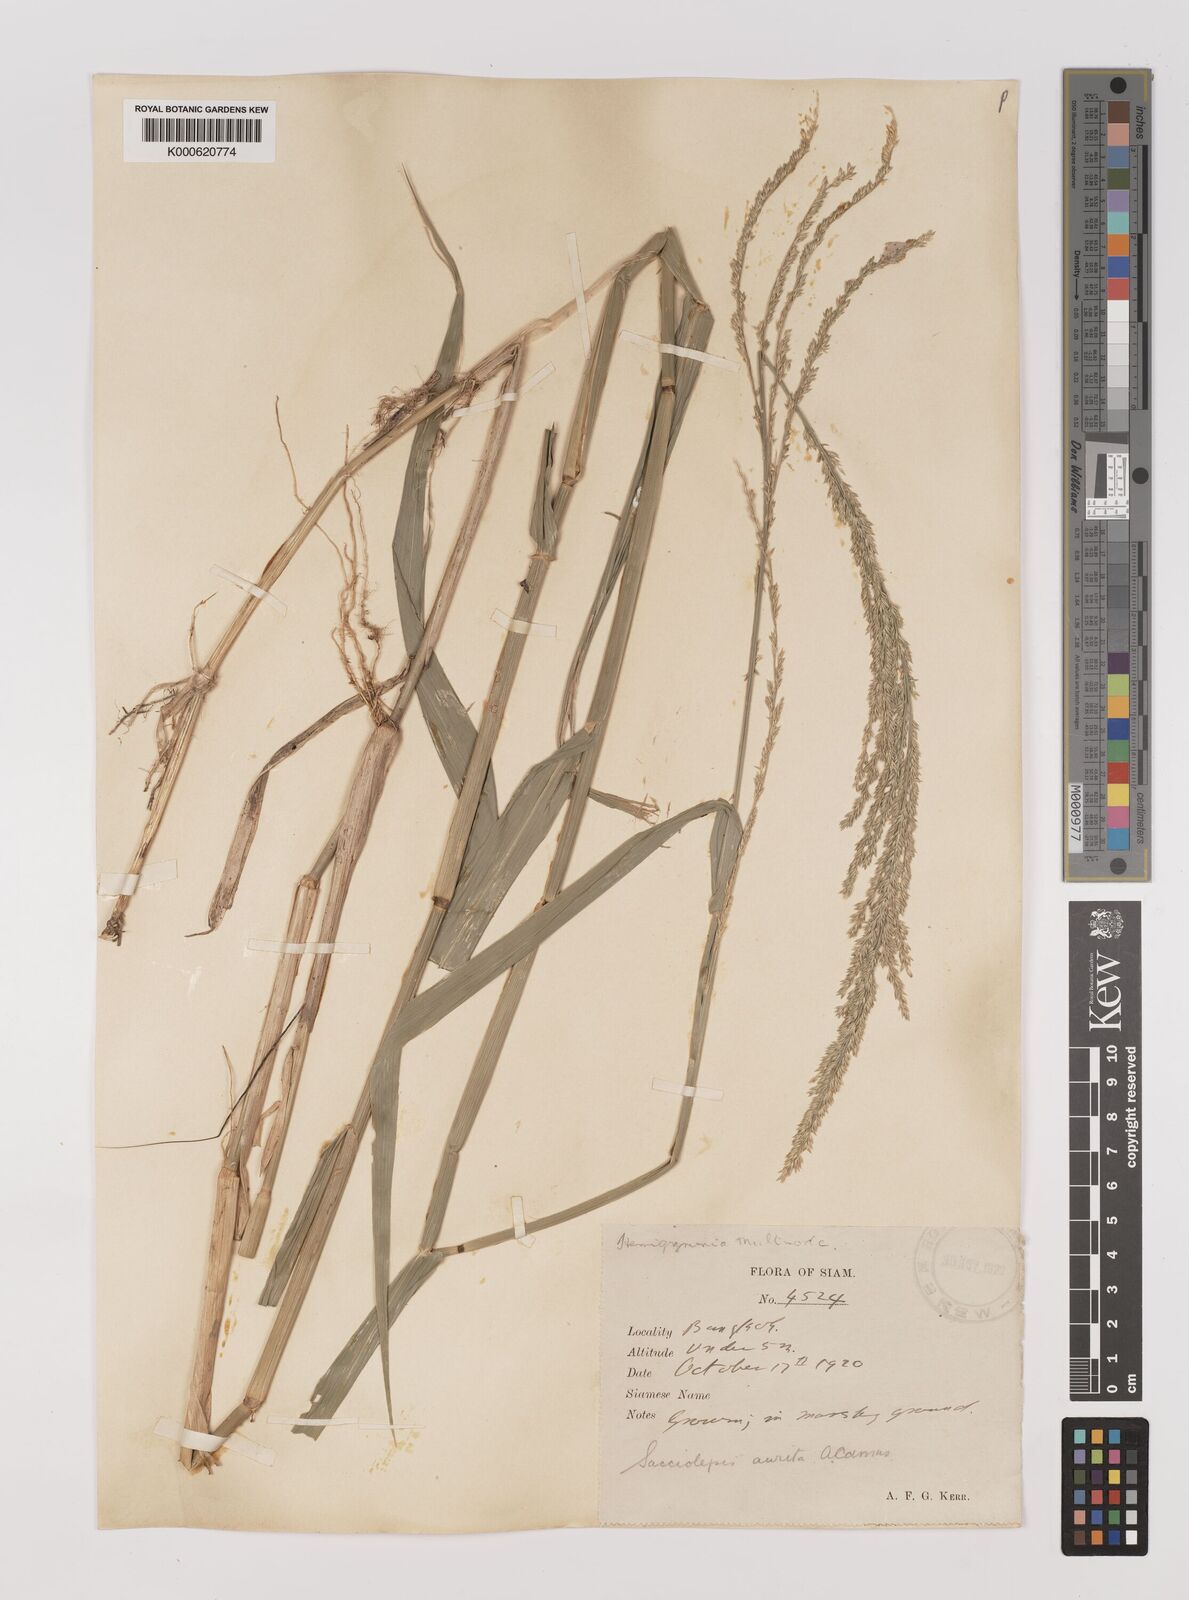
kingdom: Plantae
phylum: Tracheophyta
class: Liliopsida
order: Poales
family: Poaceae
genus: Hymenachne
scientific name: Hymenachne aurita
